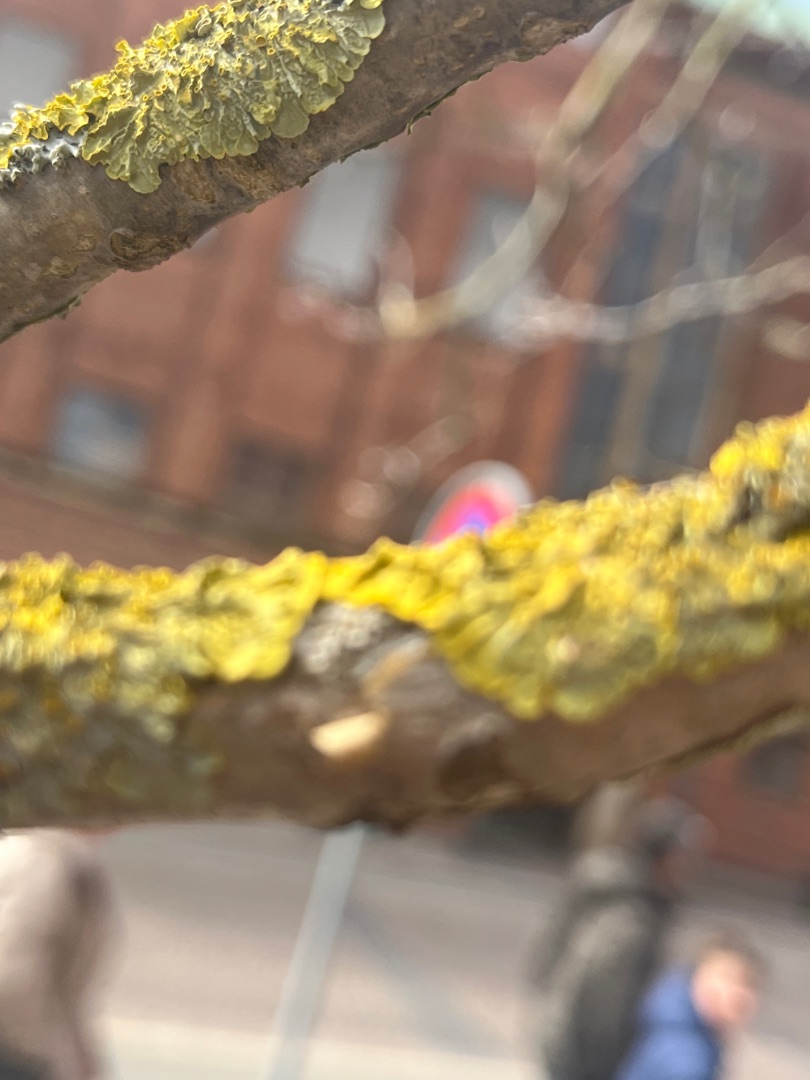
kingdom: Fungi
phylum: Ascomycota
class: Lecanoromycetes
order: Teloschistales
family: Teloschistaceae
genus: Xanthoria
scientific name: Xanthoria parietina
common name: Almindelig væggelav
